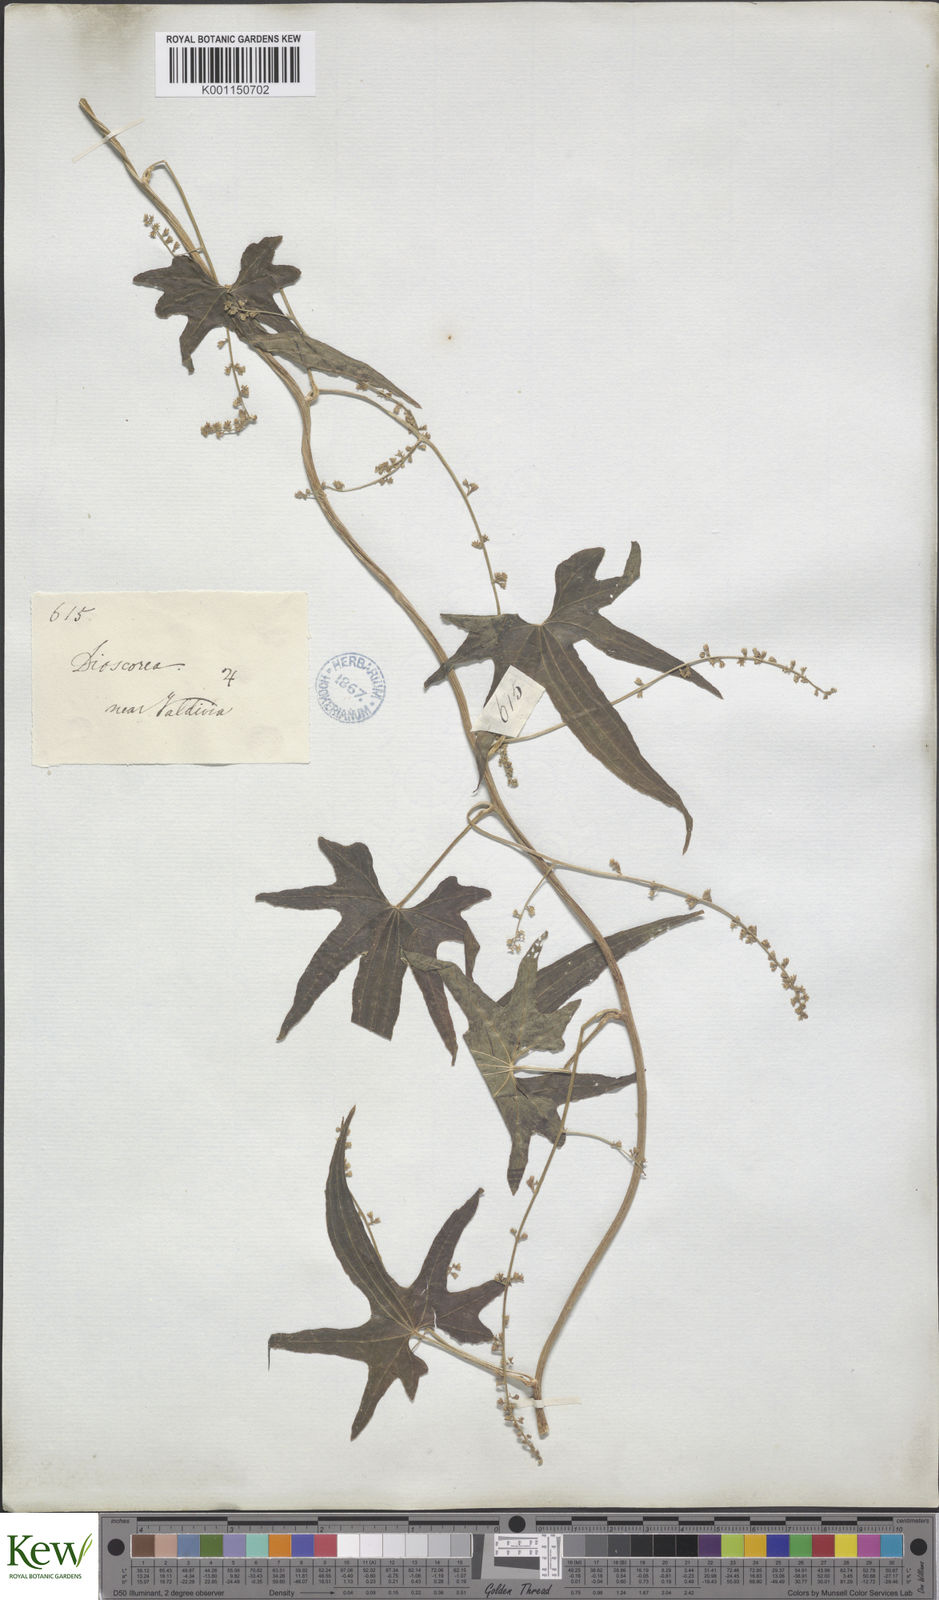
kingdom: Plantae
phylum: Tracheophyta
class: Liliopsida
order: Dioscoreales
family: Dioscoreaceae
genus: Dioscorea
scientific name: Dioscorea brachybotrya
